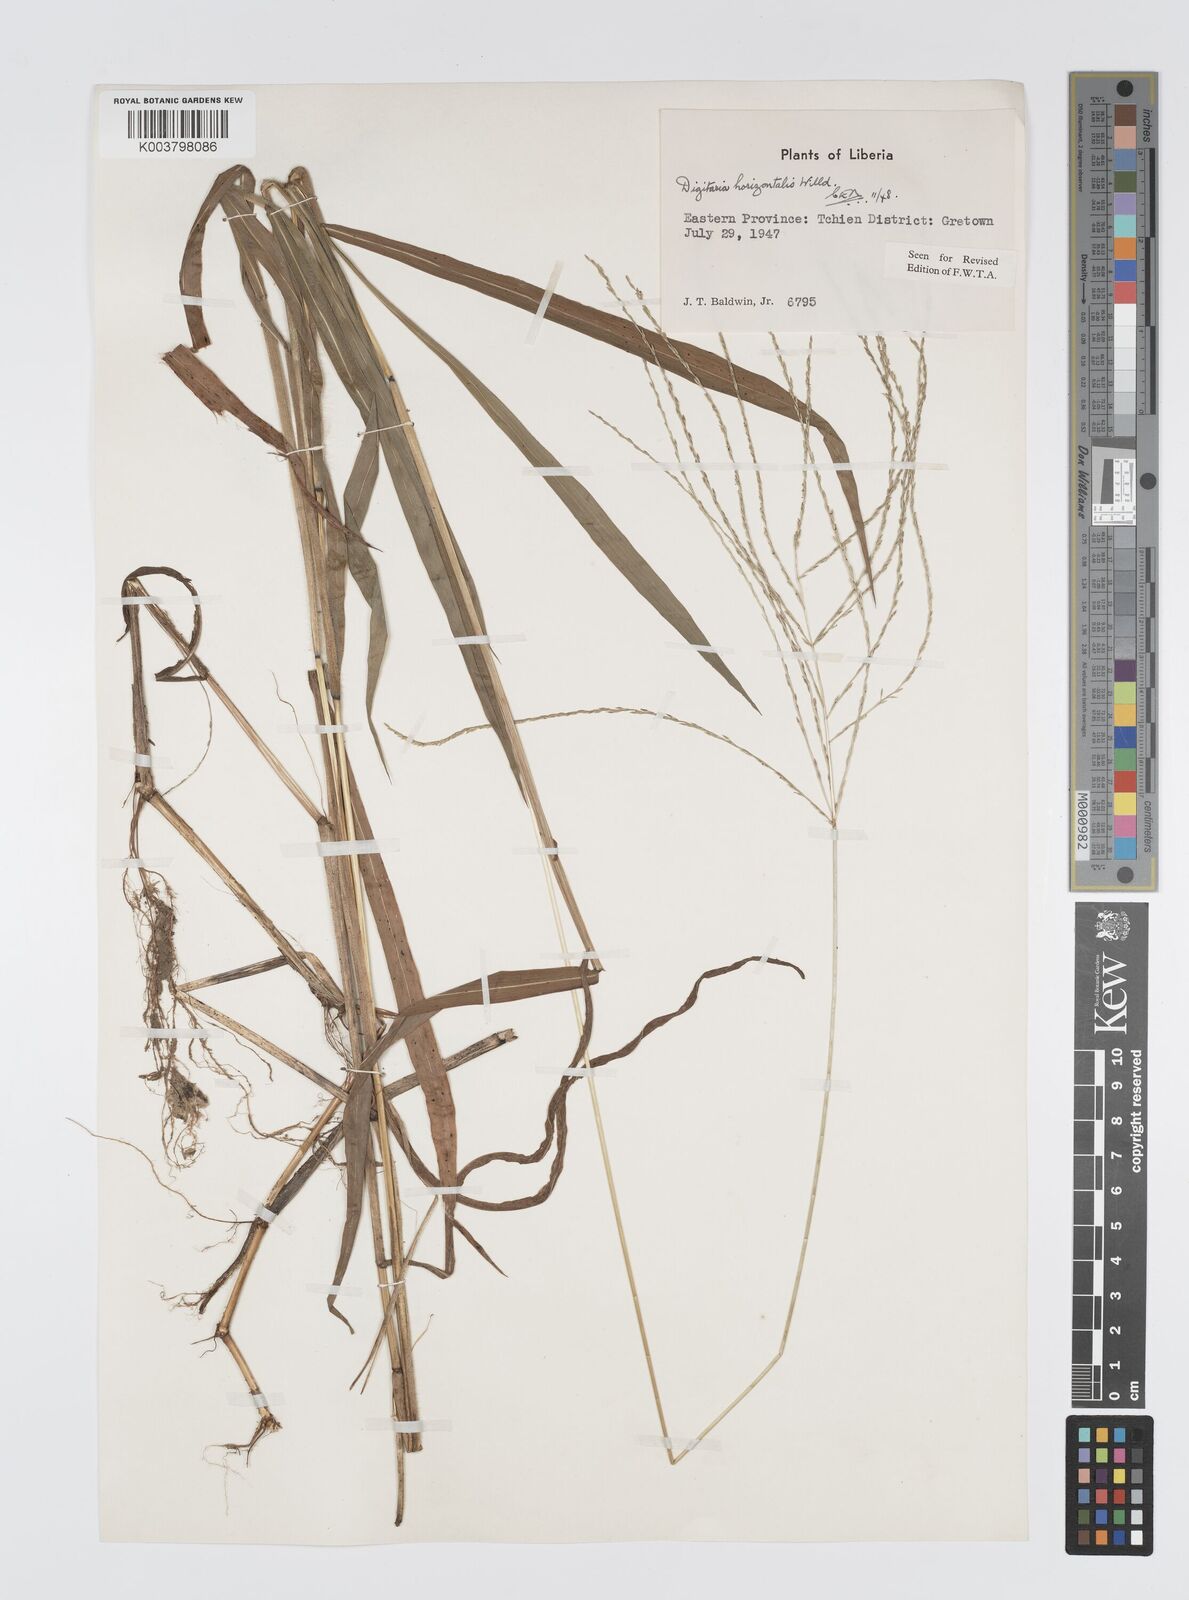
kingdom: Plantae
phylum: Tracheophyta
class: Liliopsida
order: Poales
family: Poaceae
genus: Digitaria
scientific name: Digitaria horizontalis
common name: Jamaican crabgrass
